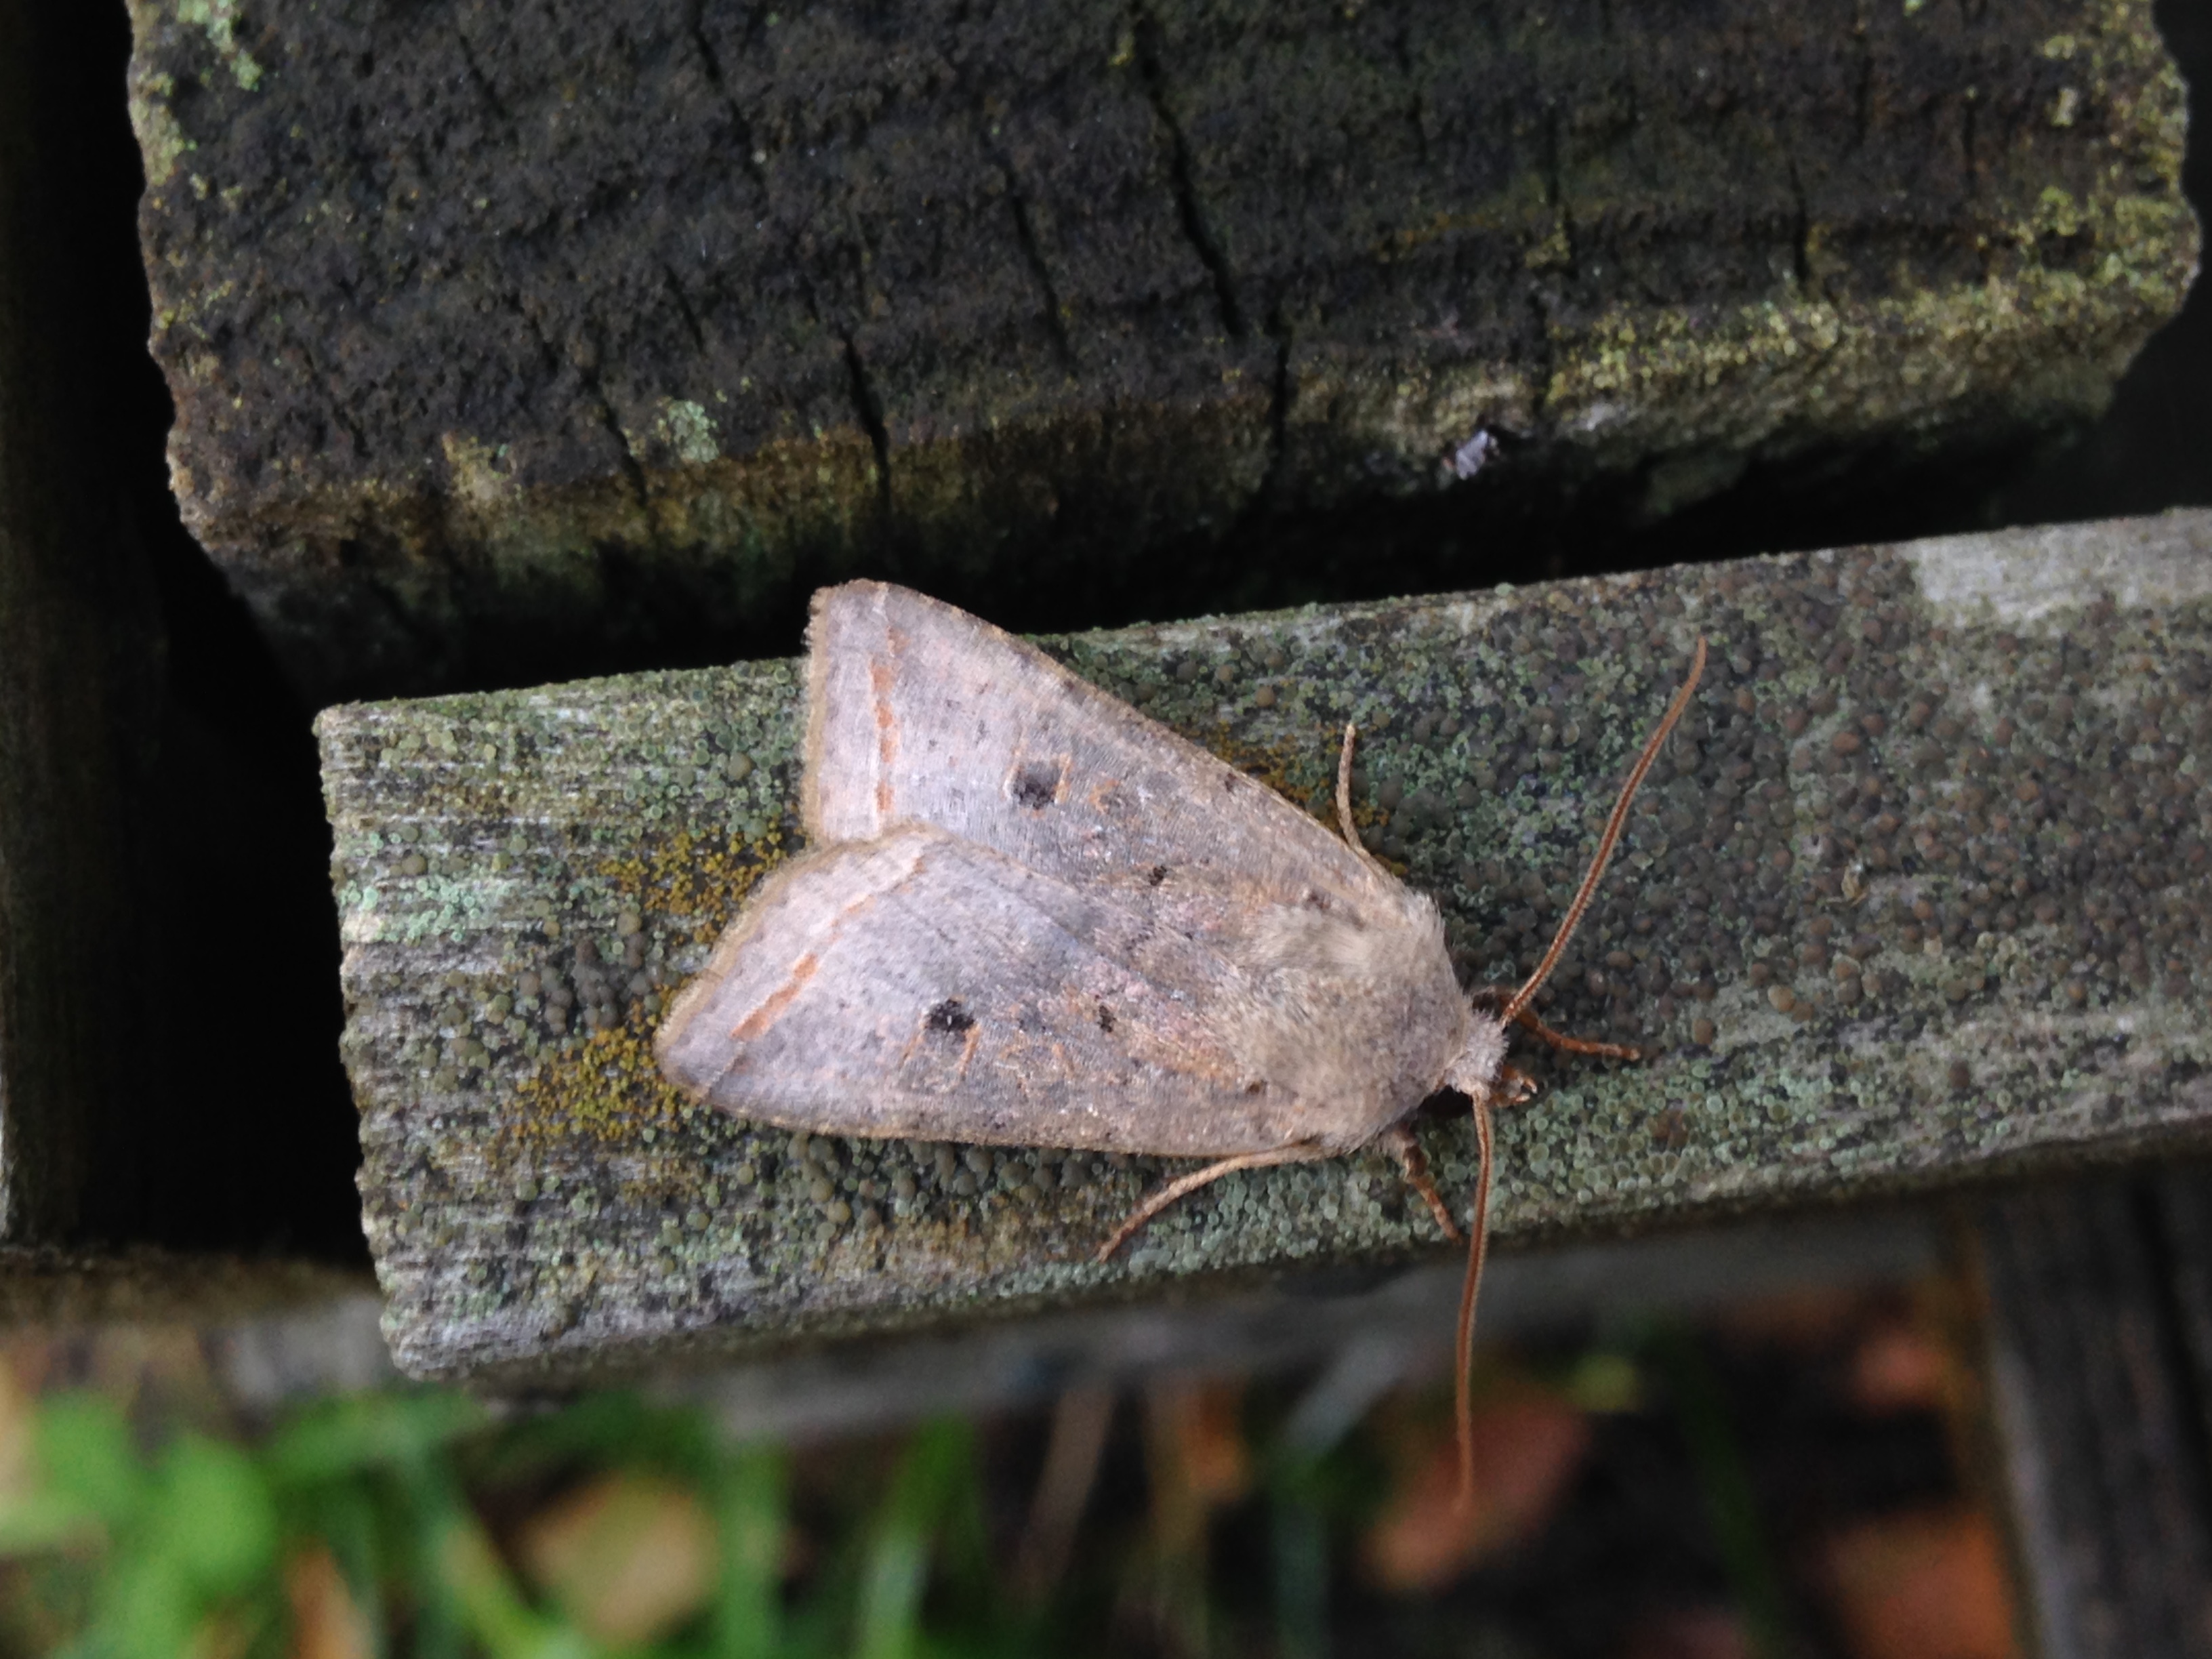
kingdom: Animalia
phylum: Arthropoda
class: Insecta
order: Lepidoptera
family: Noctuidae
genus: Agrochola
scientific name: Agrochola Leptologia lota
